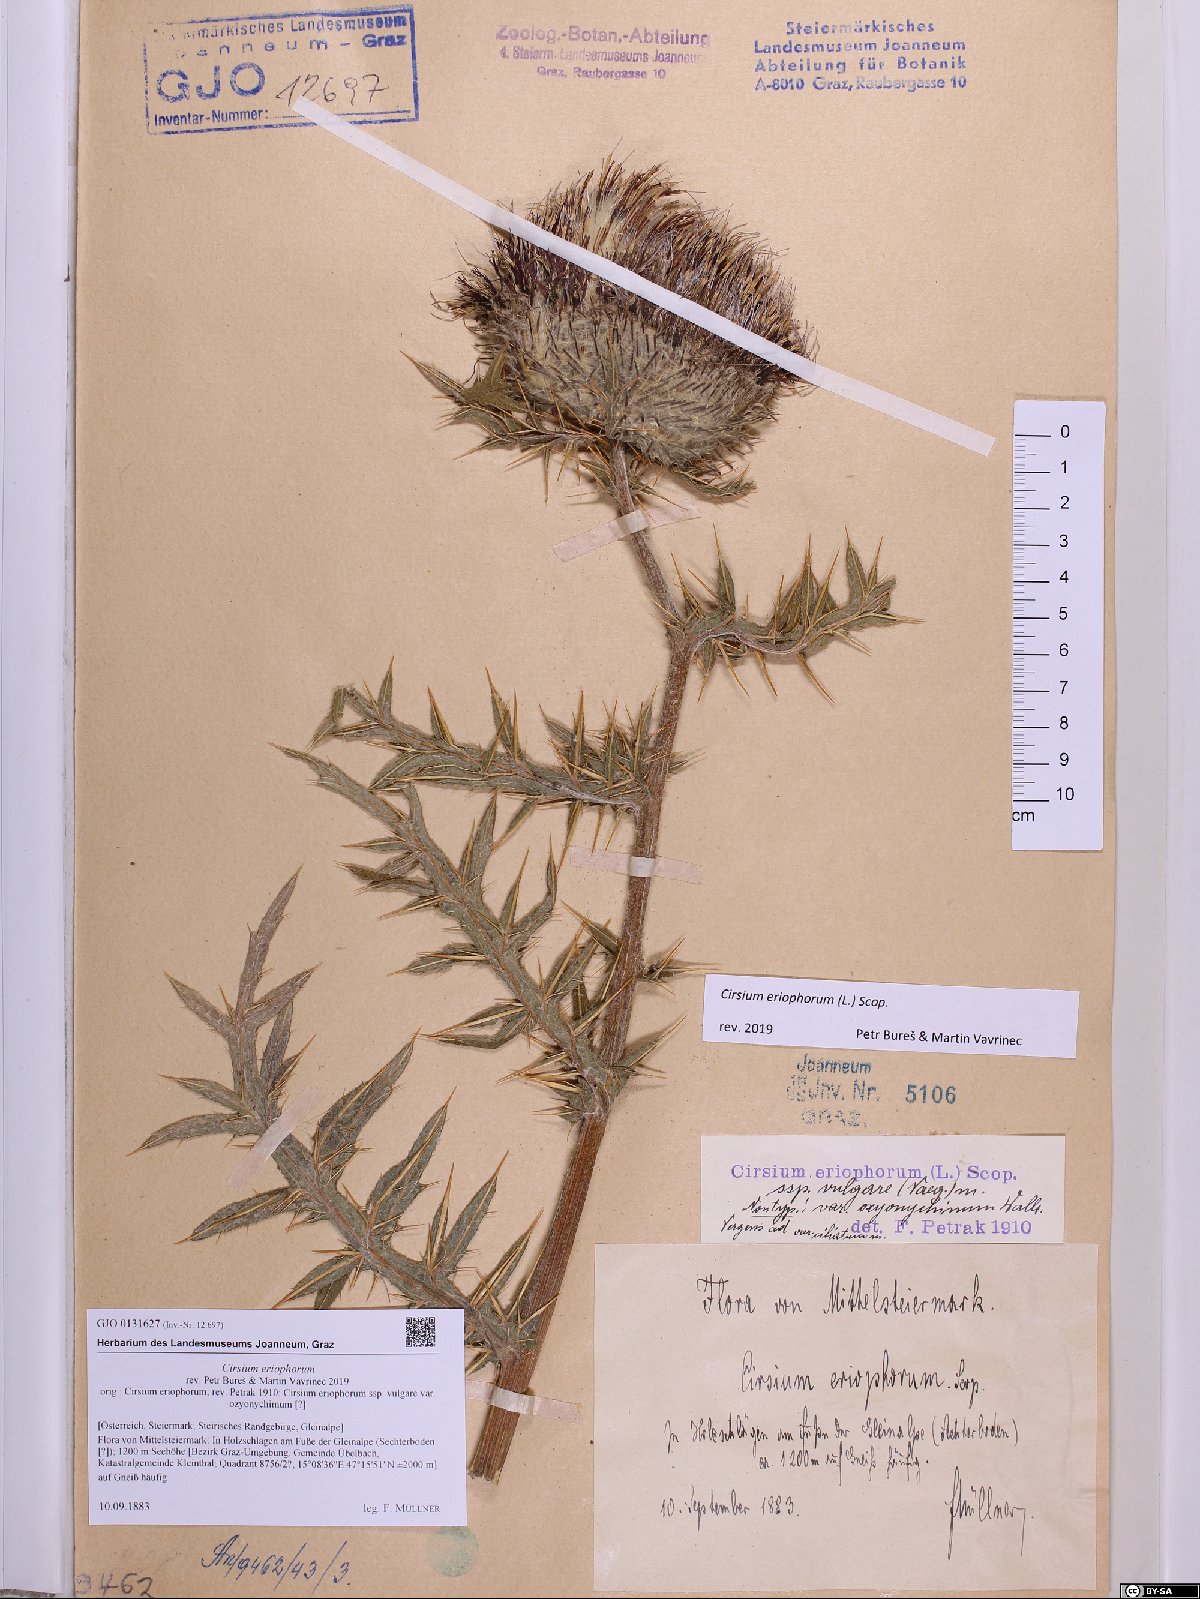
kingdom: Plantae
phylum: Tracheophyta
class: Magnoliopsida
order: Asterales
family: Asteraceae
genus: Lophiolepis
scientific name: Lophiolepis eriophora
